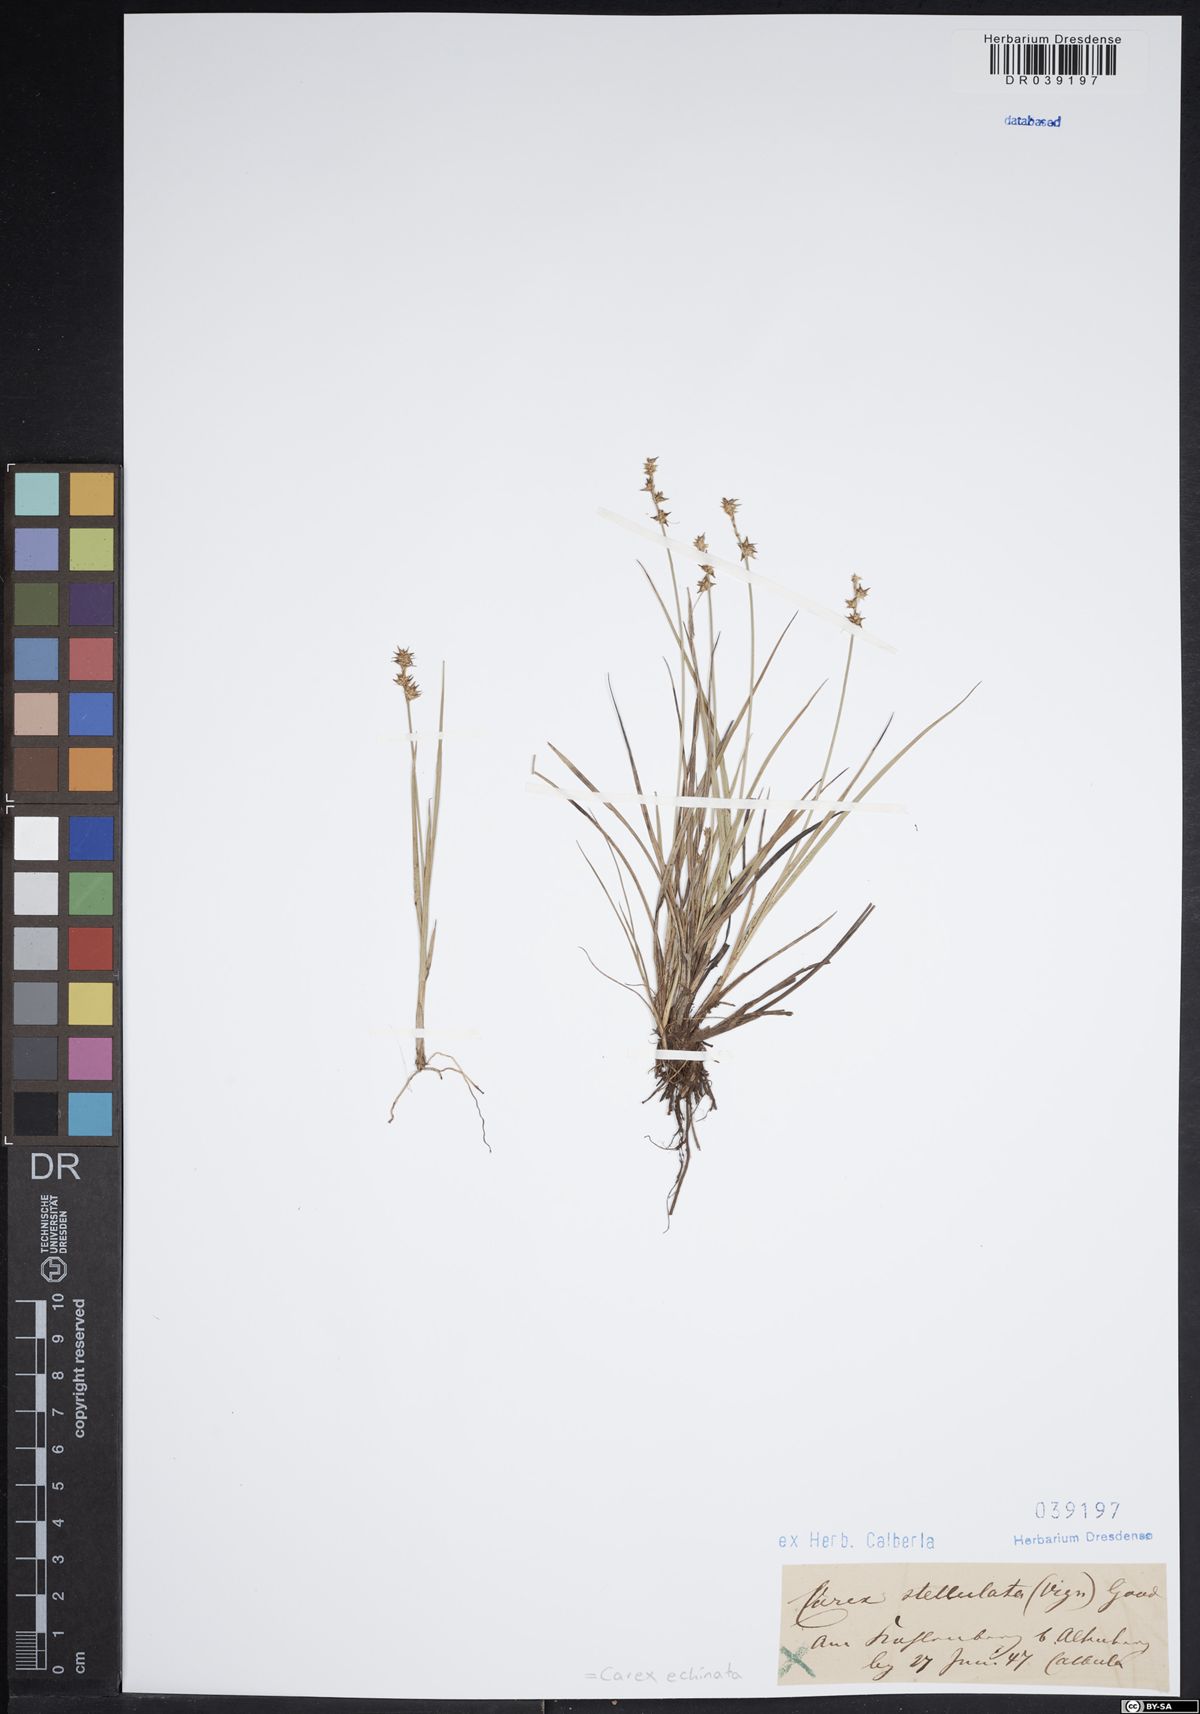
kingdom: Plantae
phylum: Tracheophyta
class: Liliopsida
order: Poales
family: Cyperaceae
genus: Carex
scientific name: Carex echinata
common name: Star sedge
